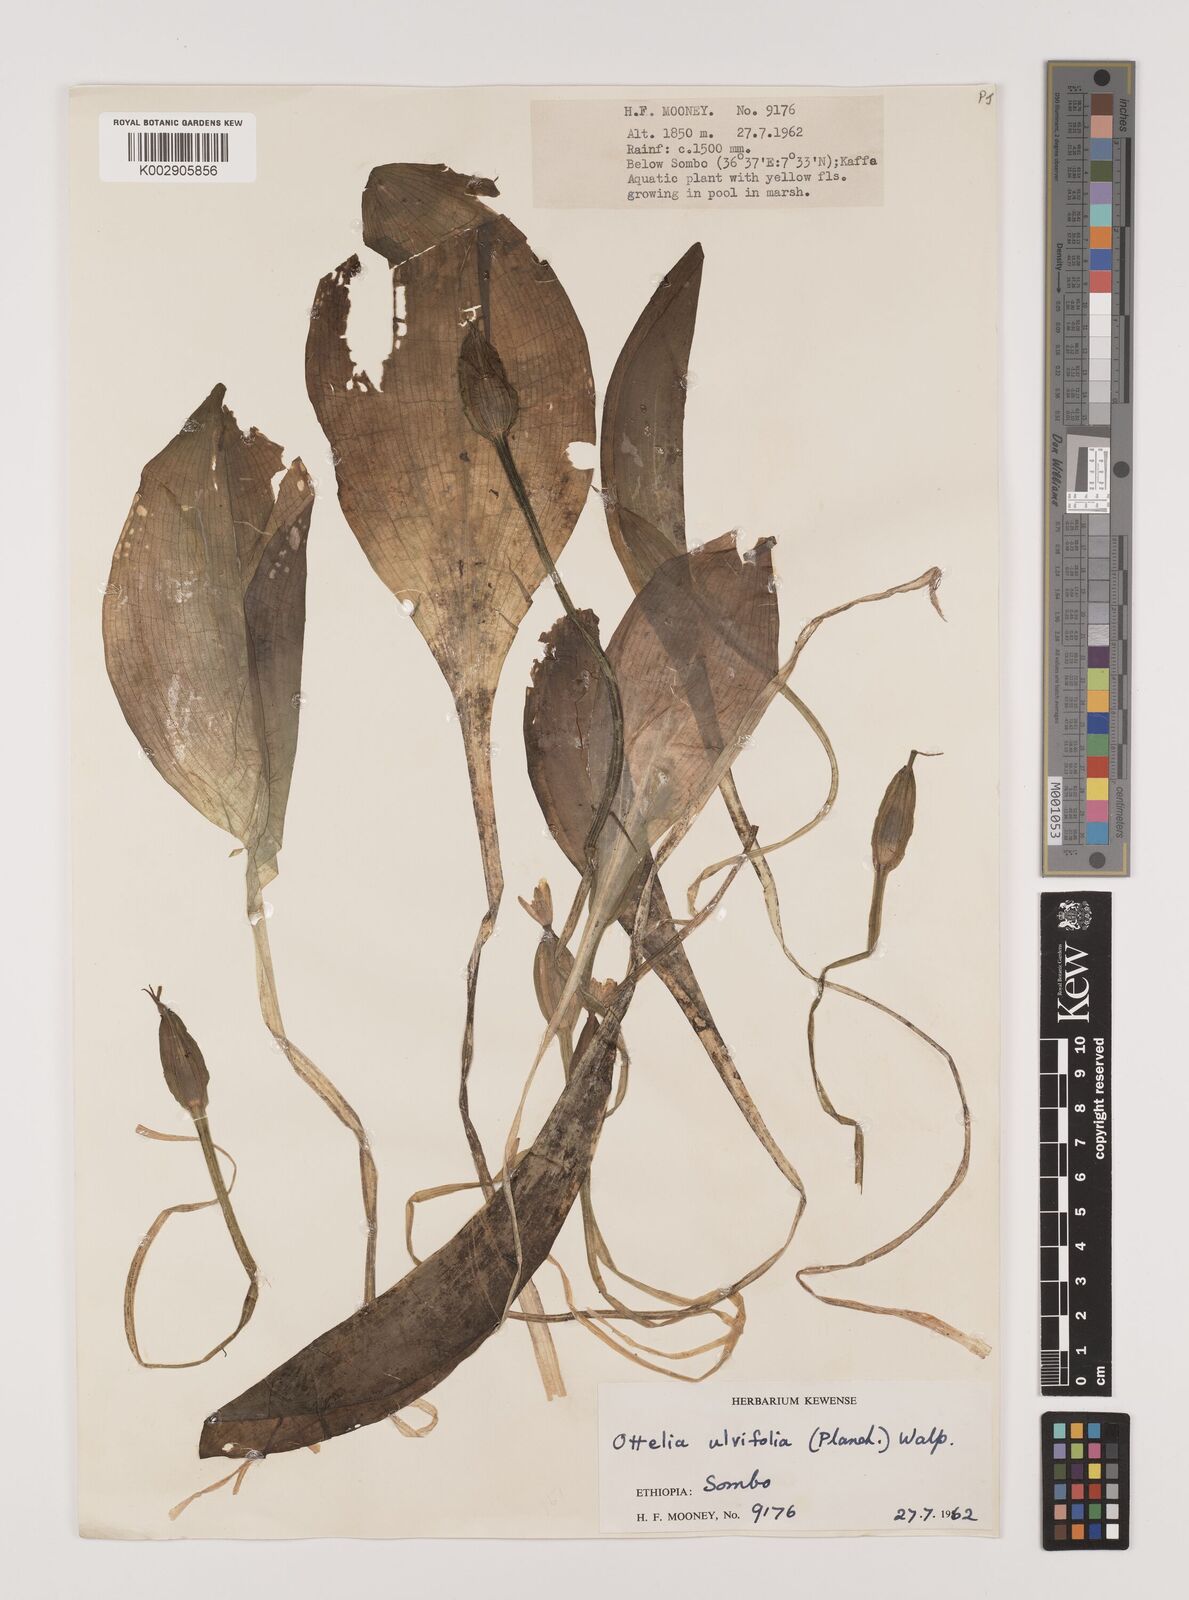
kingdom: Plantae
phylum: Tracheophyta
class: Liliopsida
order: Alismatales
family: Hydrocharitaceae
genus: Ottelia
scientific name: Ottelia ulvifolia
